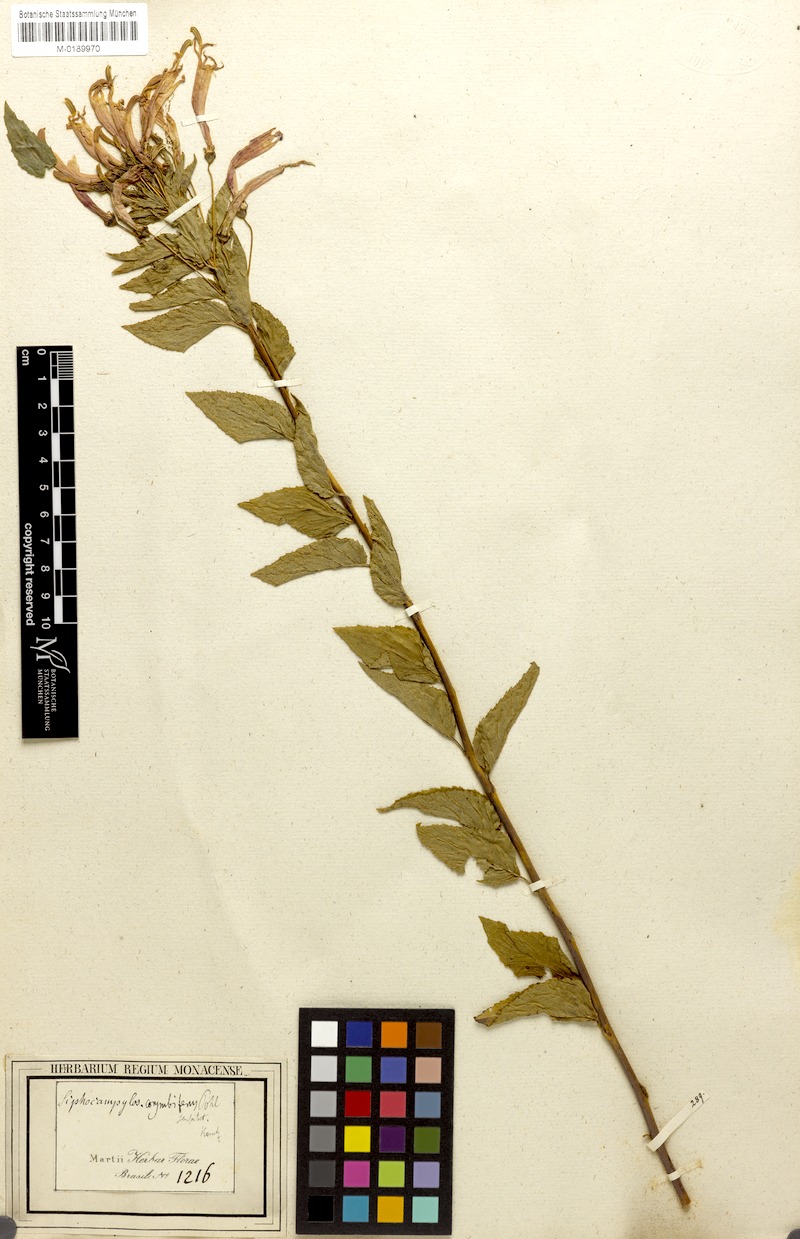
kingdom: Plantae
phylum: Tracheophyta
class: Magnoliopsida
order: Asterales
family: Campanulaceae
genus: Siphocampylus
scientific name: Siphocampylus corymbifer
